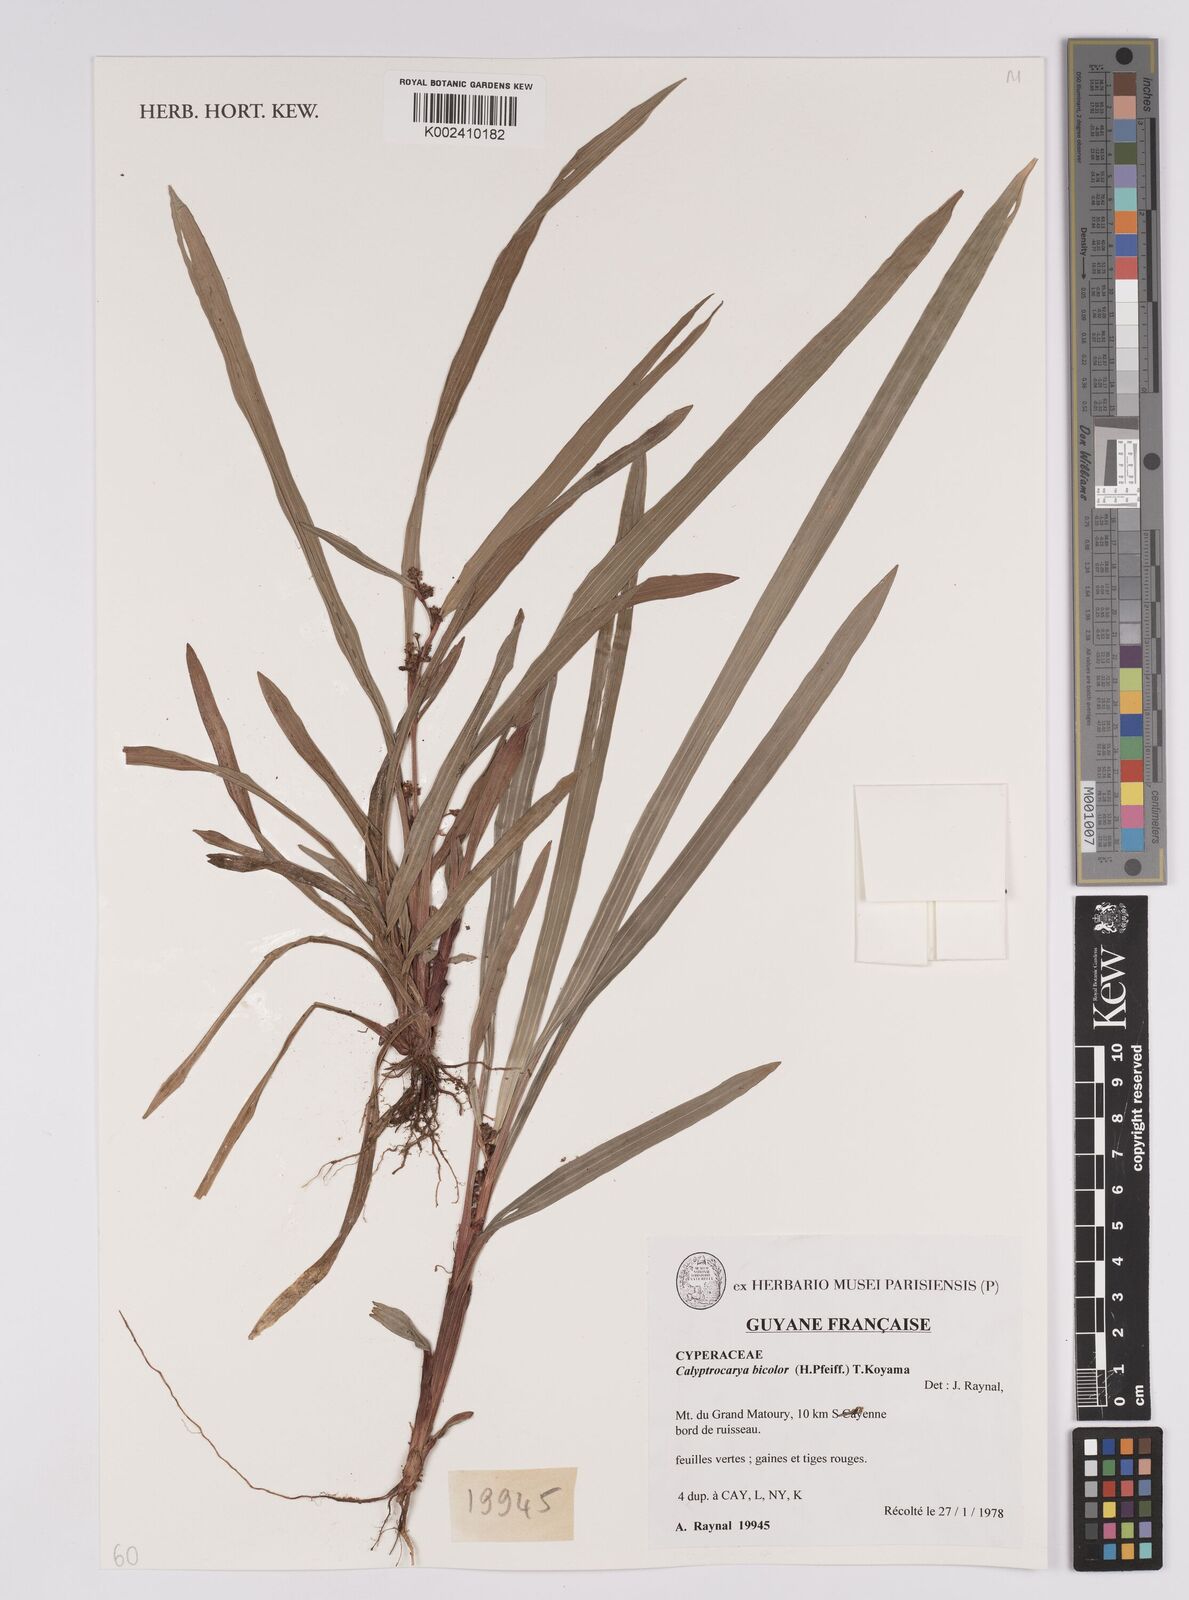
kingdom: Plantae
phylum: Tracheophyta
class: Liliopsida
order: Poales
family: Cyperaceae
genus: Calyptrocarya
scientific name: Calyptrocarya bicolor
